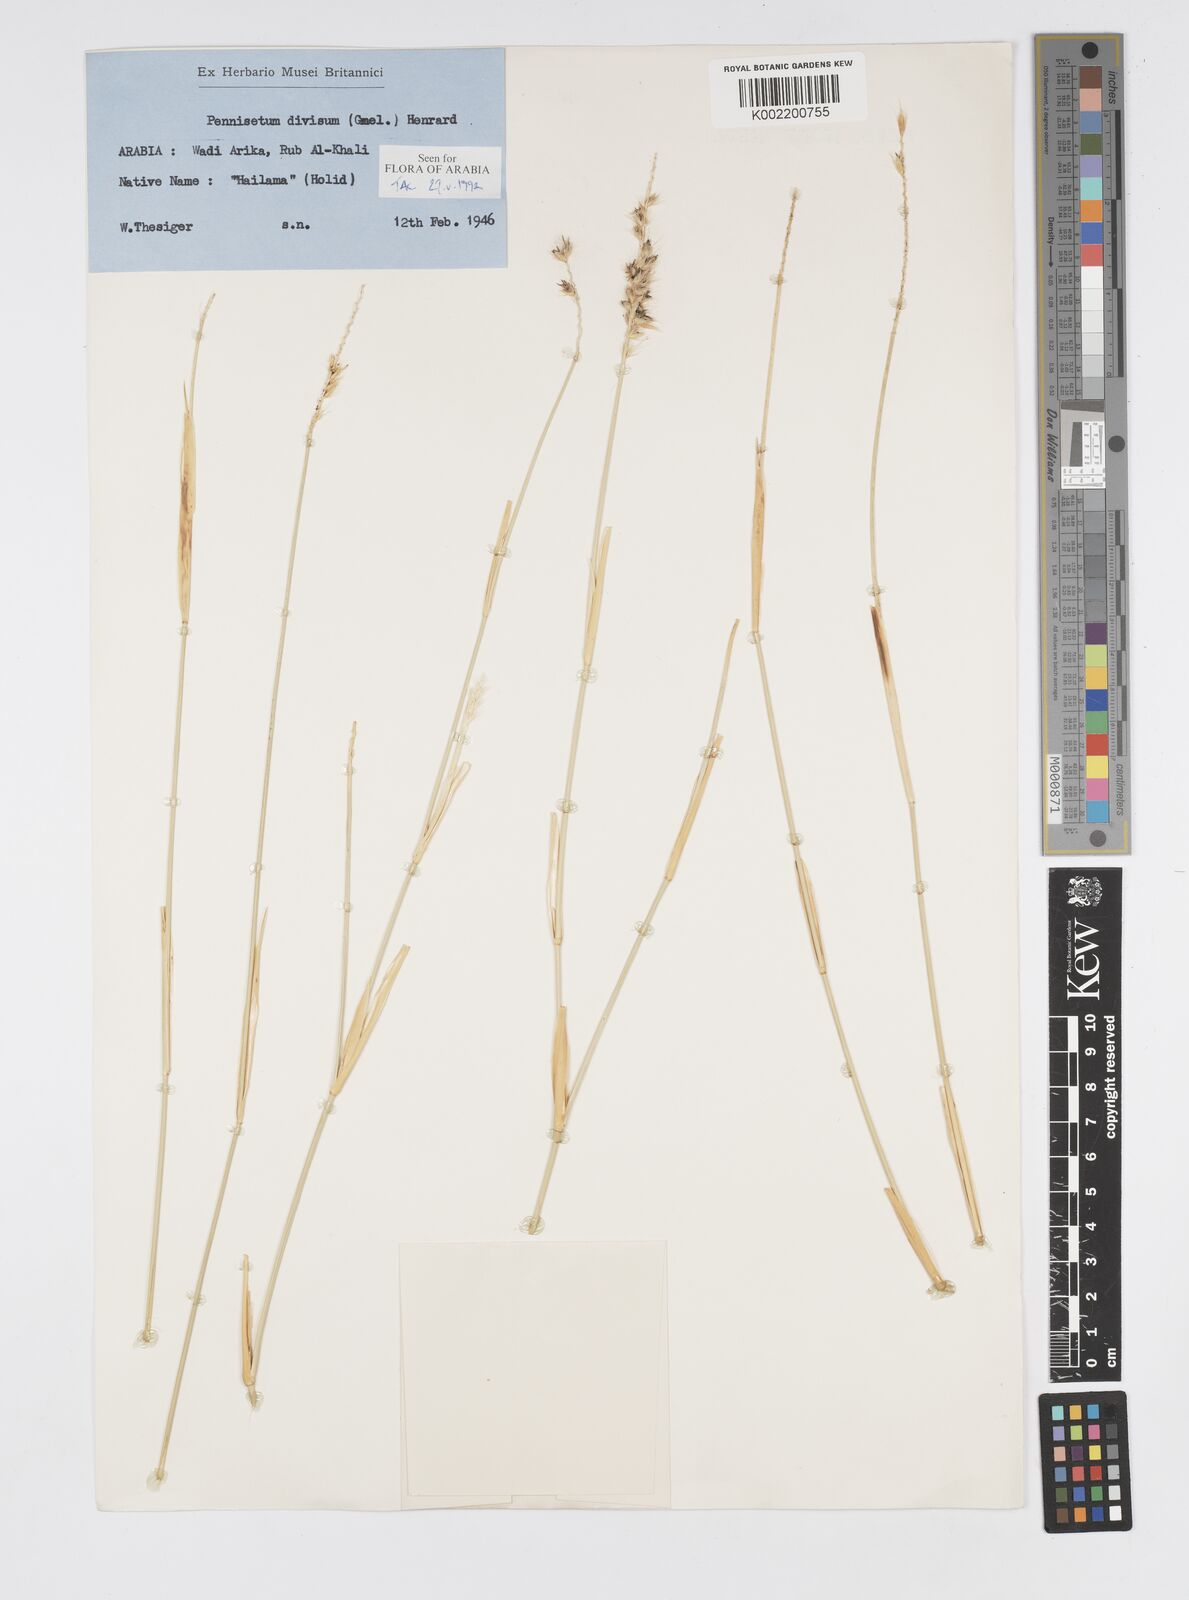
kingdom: Plantae
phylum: Tracheophyta
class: Liliopsida
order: Poales
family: Poaceae
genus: Cenchrus
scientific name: Cenchrus divisus
